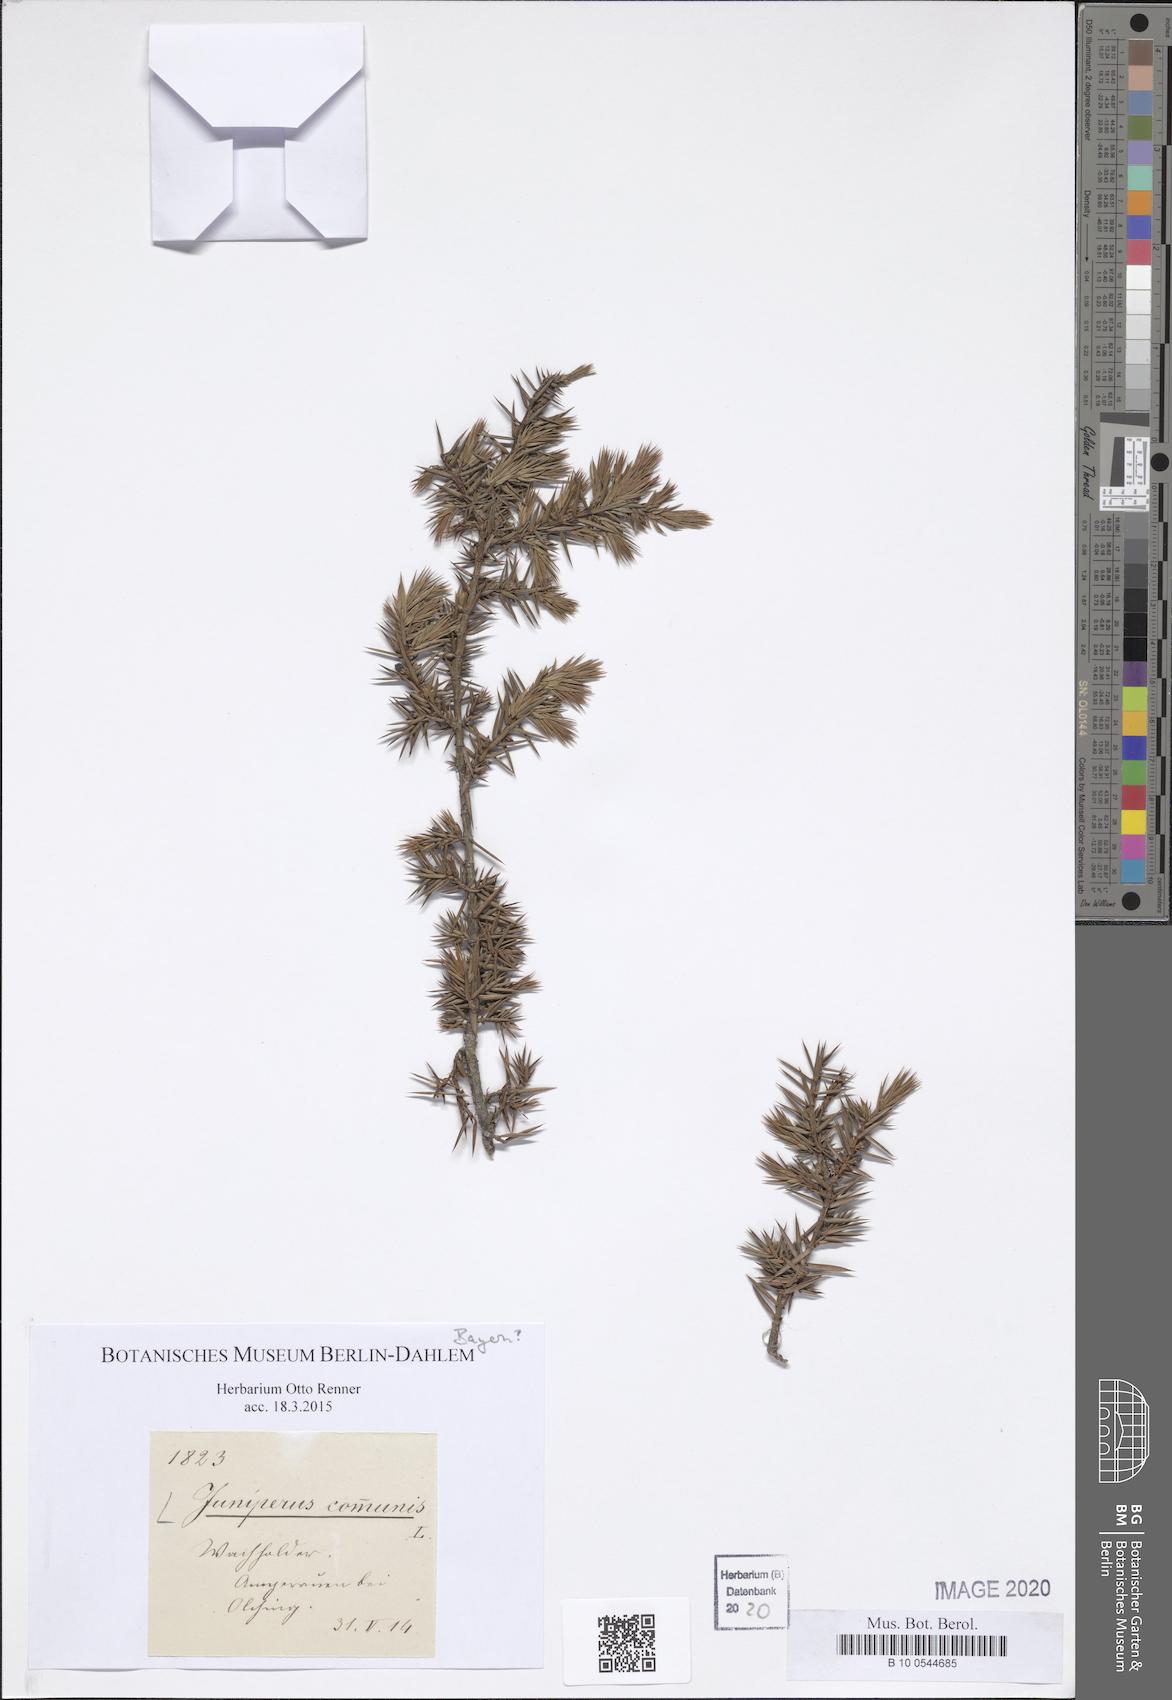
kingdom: Plantae
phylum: Tracheophyta
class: Pinopsida
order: Pinales
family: Cupressaceae
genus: Juniperus
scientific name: Juniperus communis
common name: Common juniper
